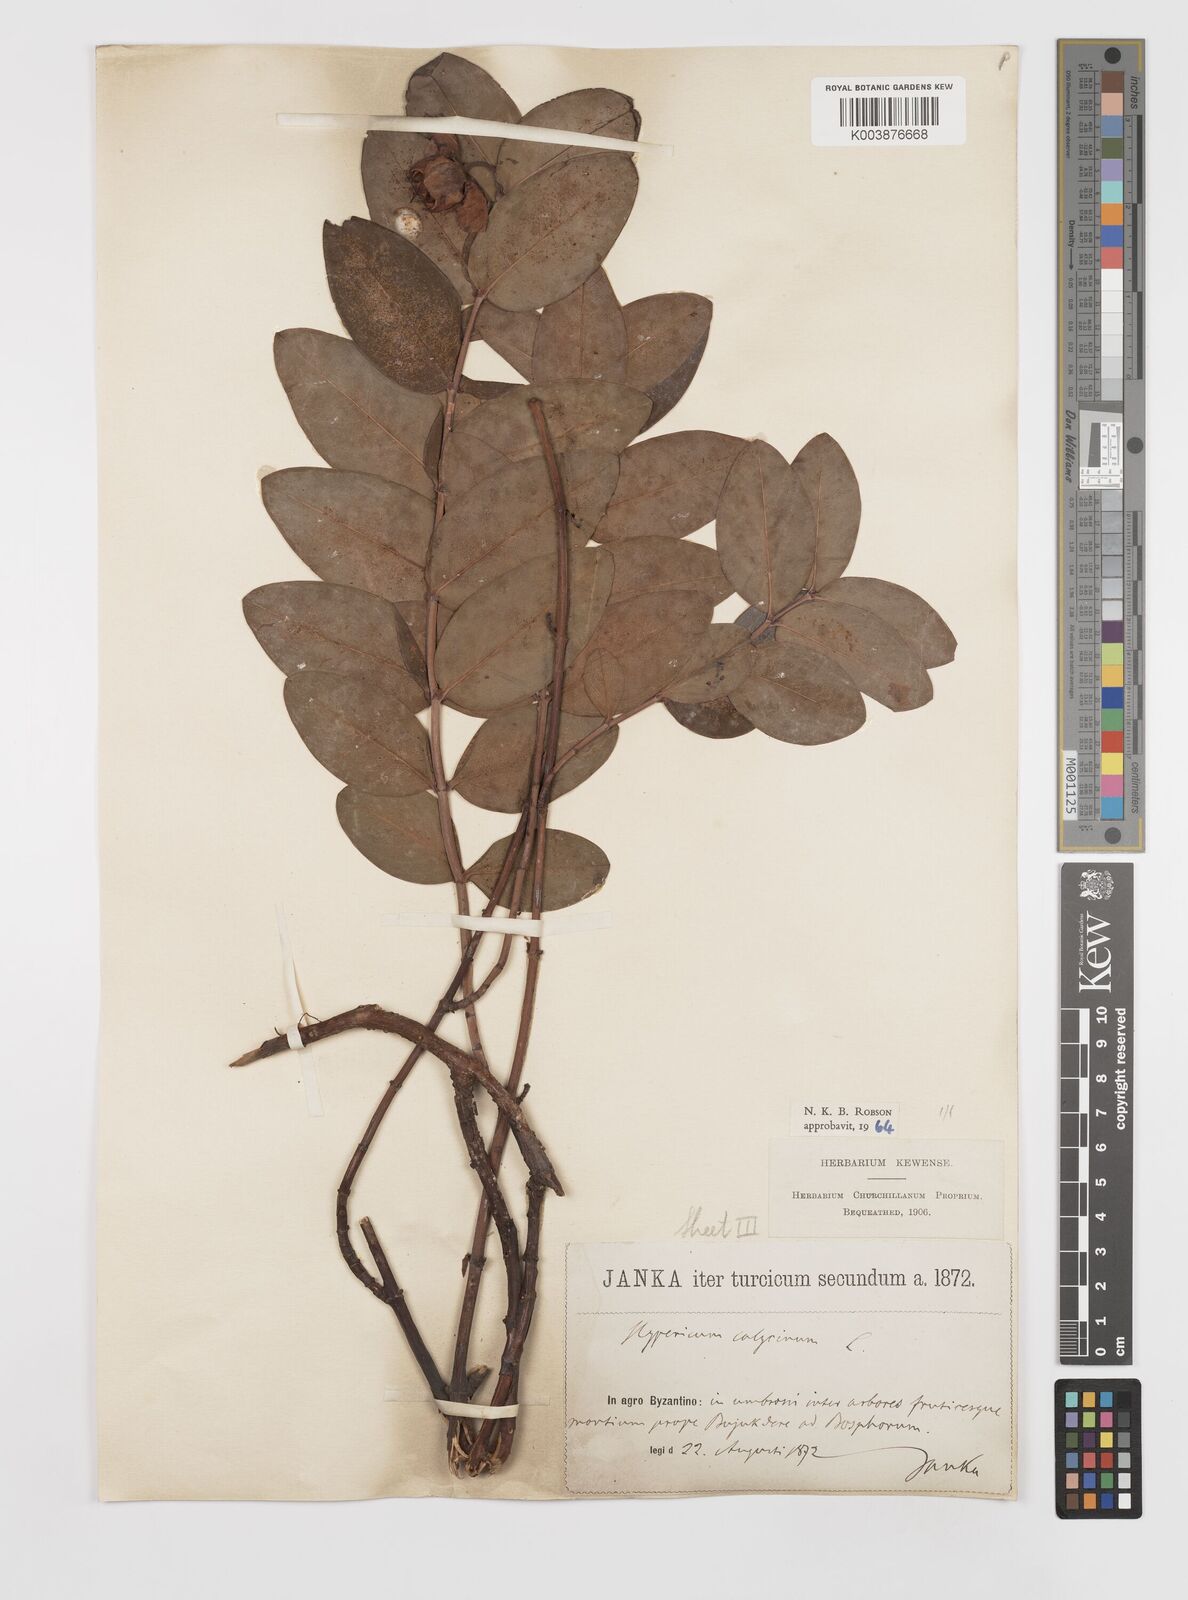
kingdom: Plantae
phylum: Tracheophyta
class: Magnoliopsida
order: Malpighiales
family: Hypericaceae
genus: Hypericum
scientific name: Hypericum calycinum
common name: Rose-of-sharon
